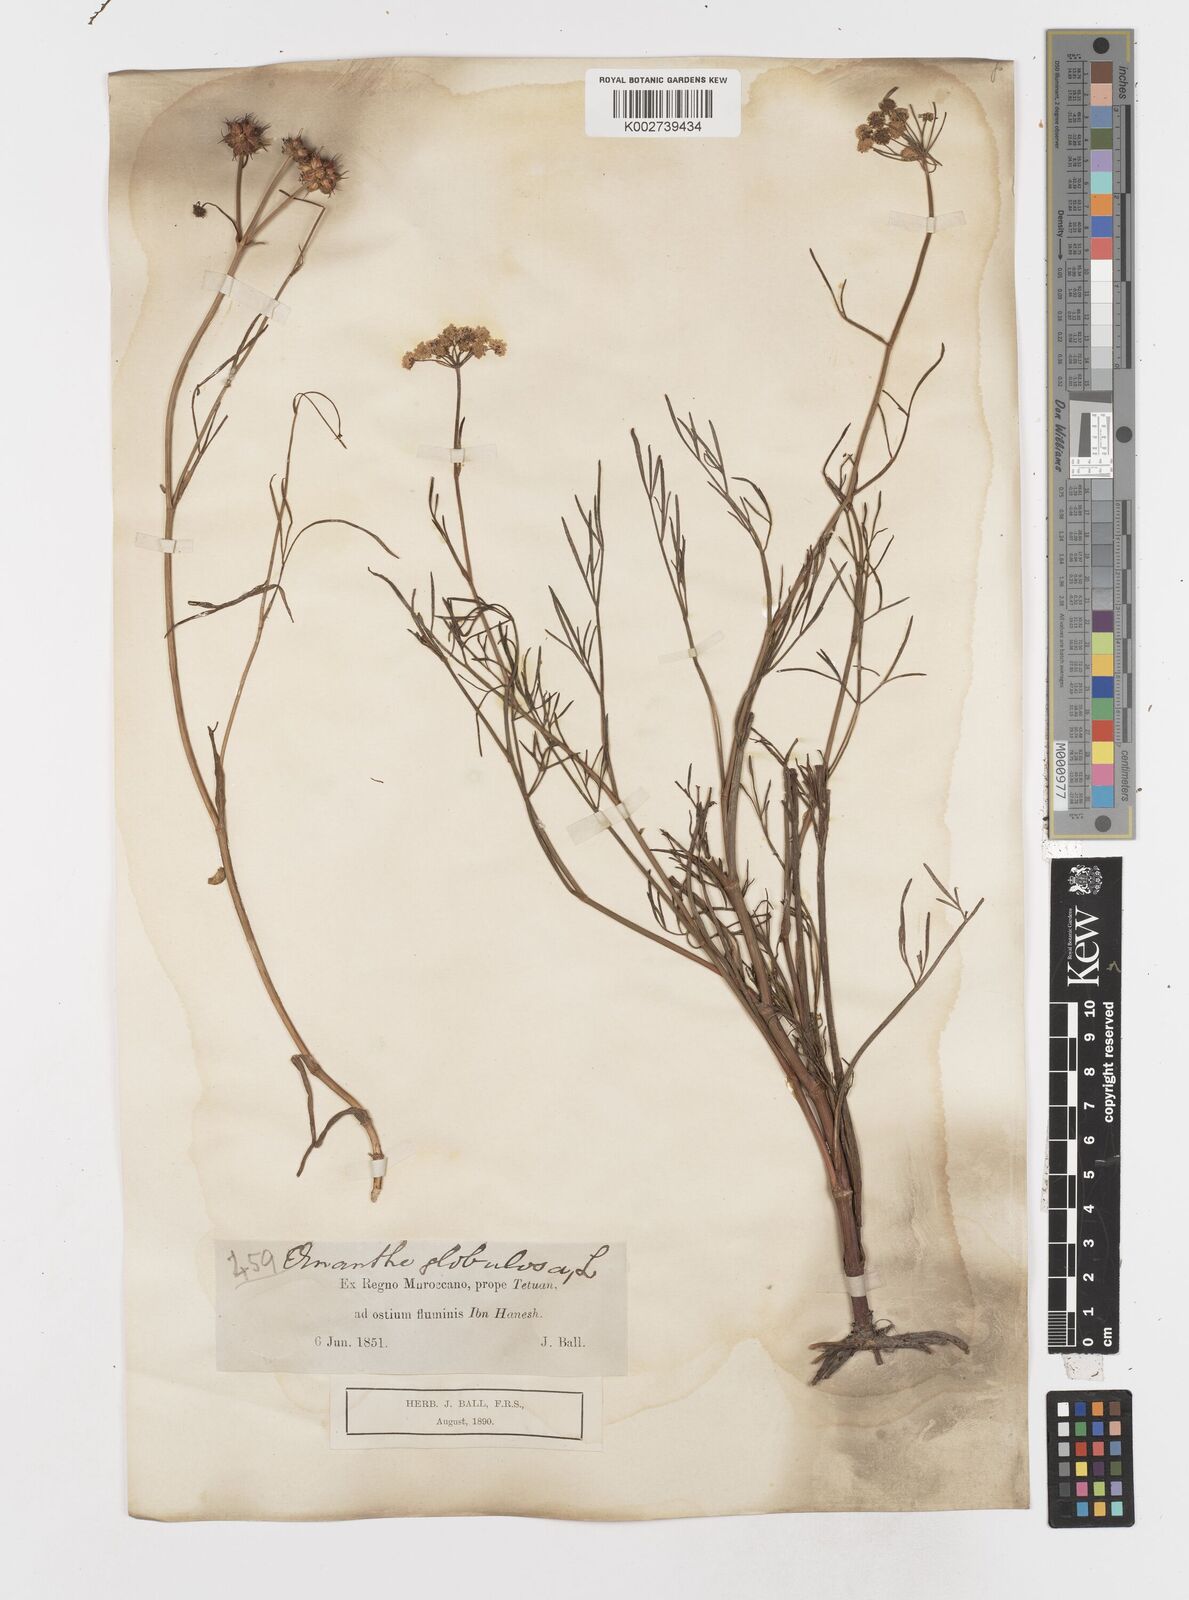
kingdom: Plantae
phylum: Tracheophyta
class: Magnoliopsida
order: Apiales
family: Apiaceae
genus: Oenanthe
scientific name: Oenanthe globulosa
